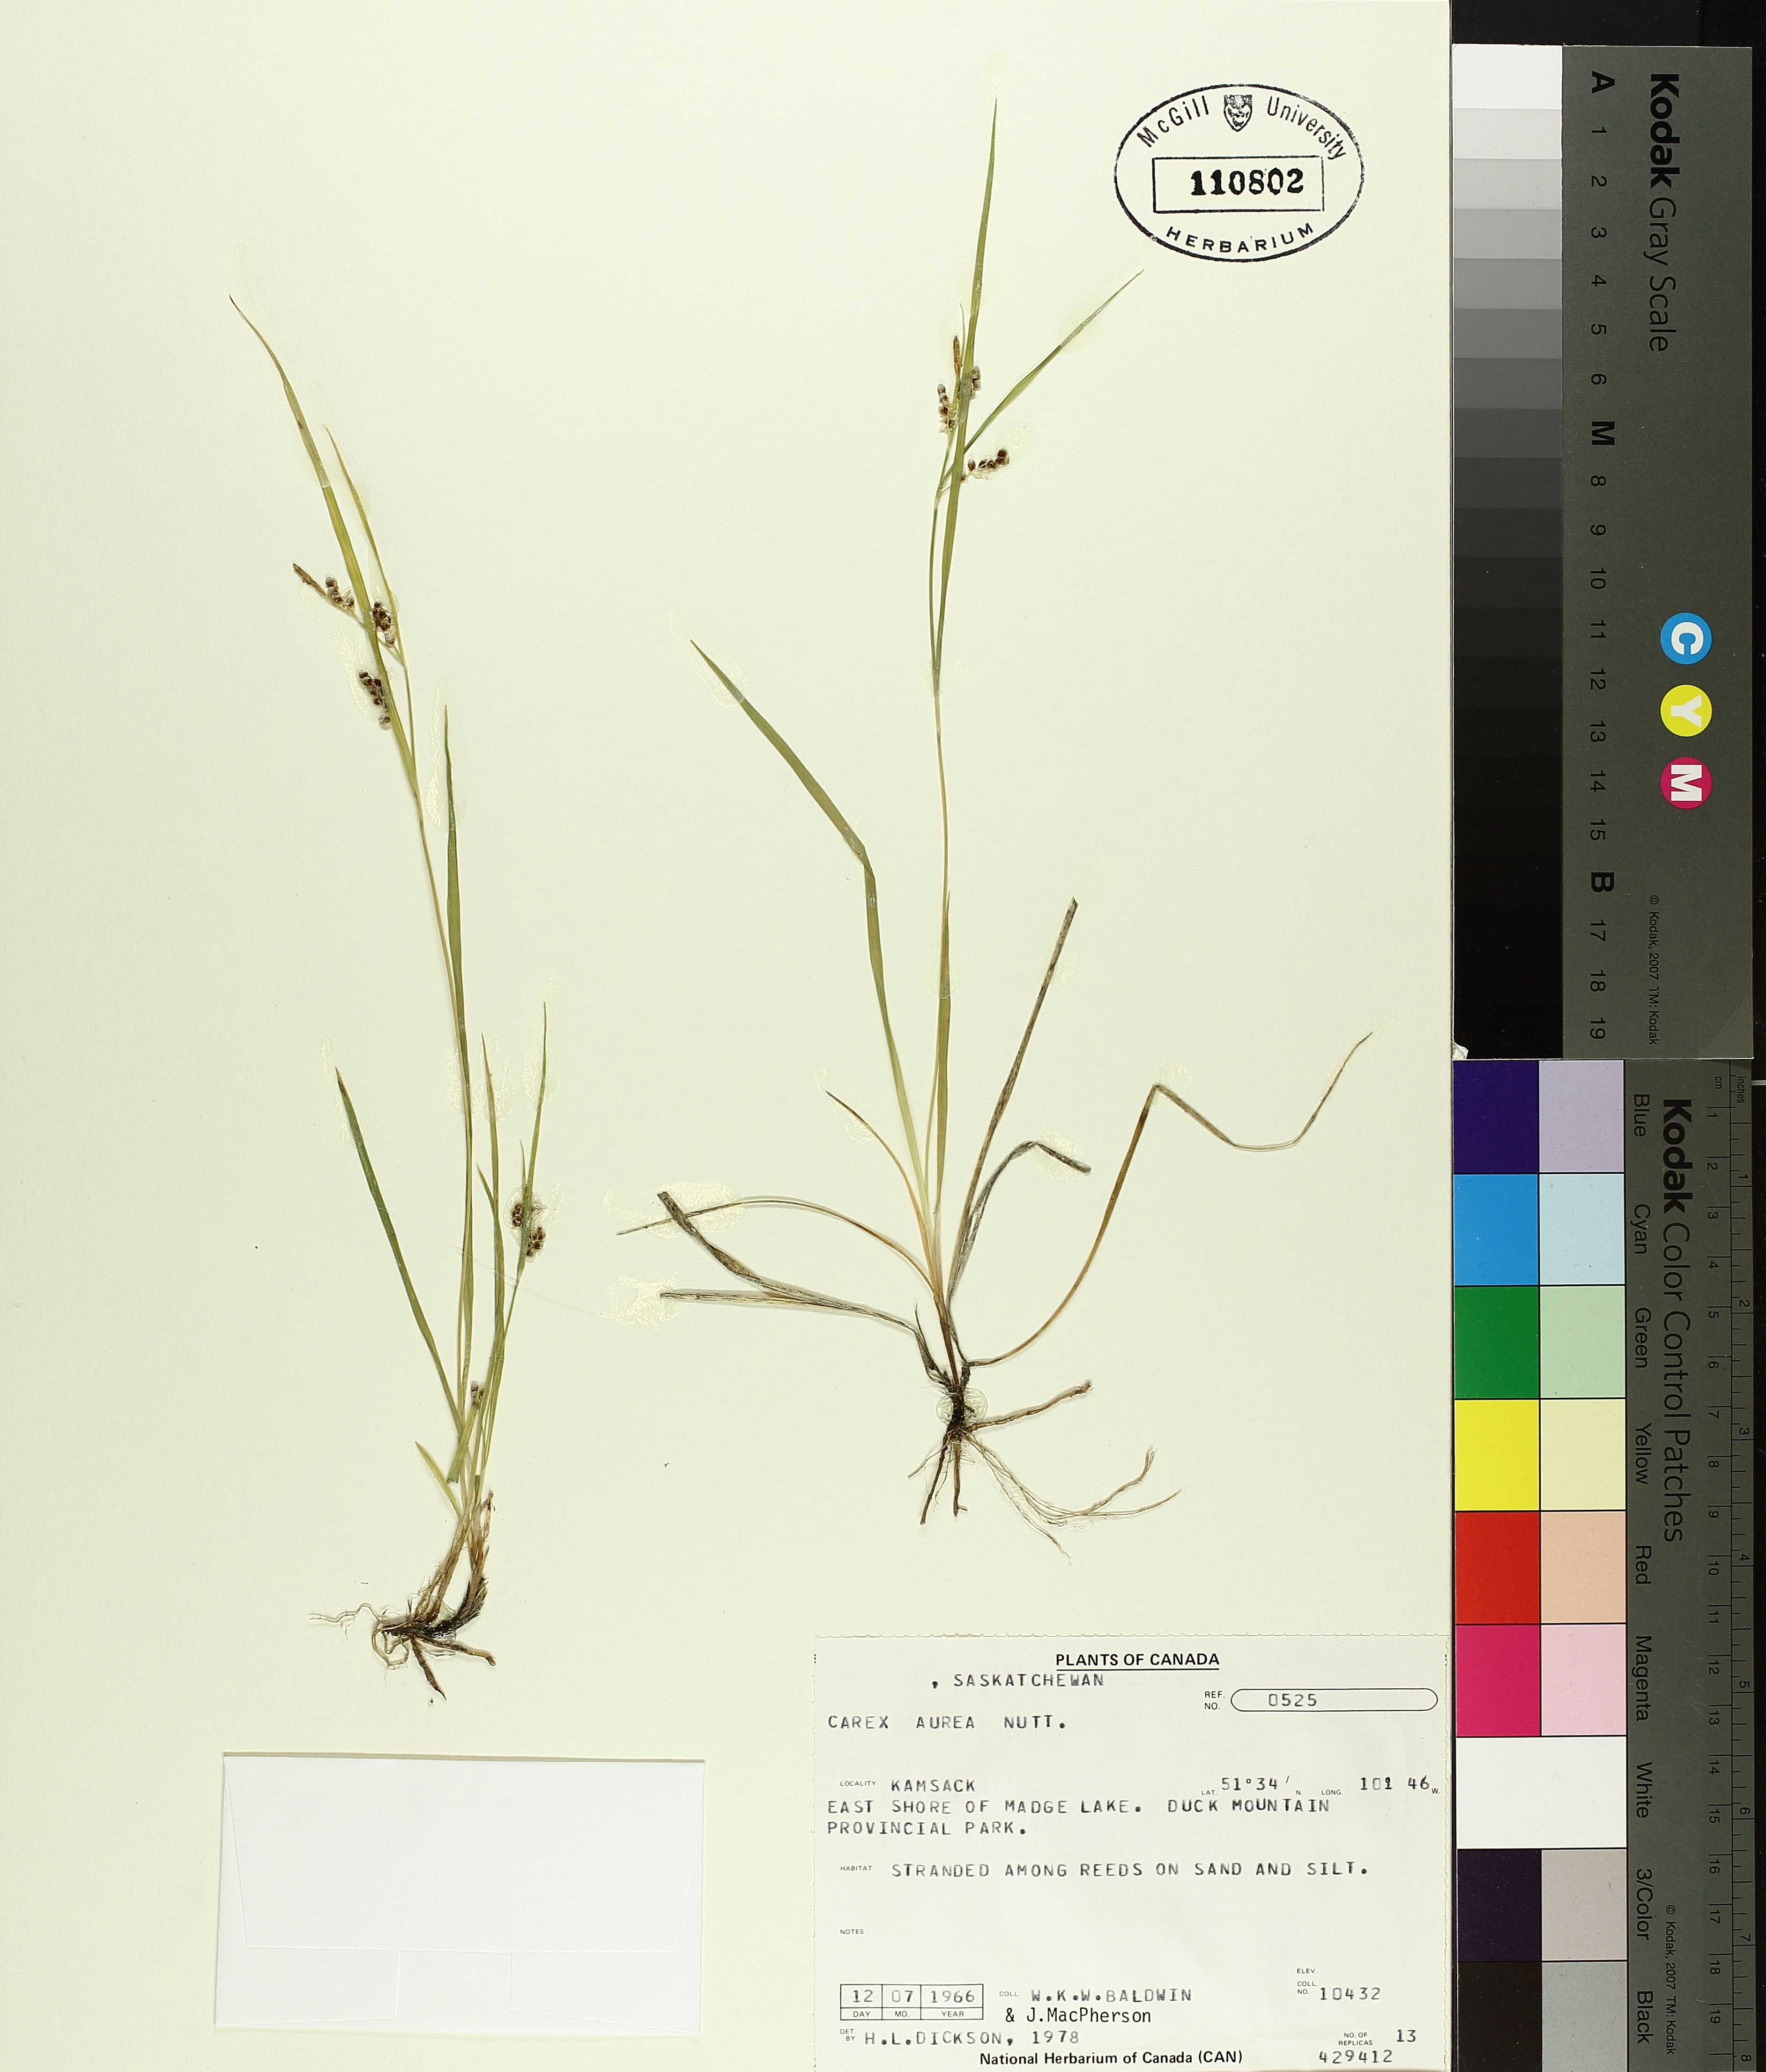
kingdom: Plantae
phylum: Tracheophyta
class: Liliopsida
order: Poales
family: Cyperaceae
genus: Carex
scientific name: Carex aurea
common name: Golden sedge
